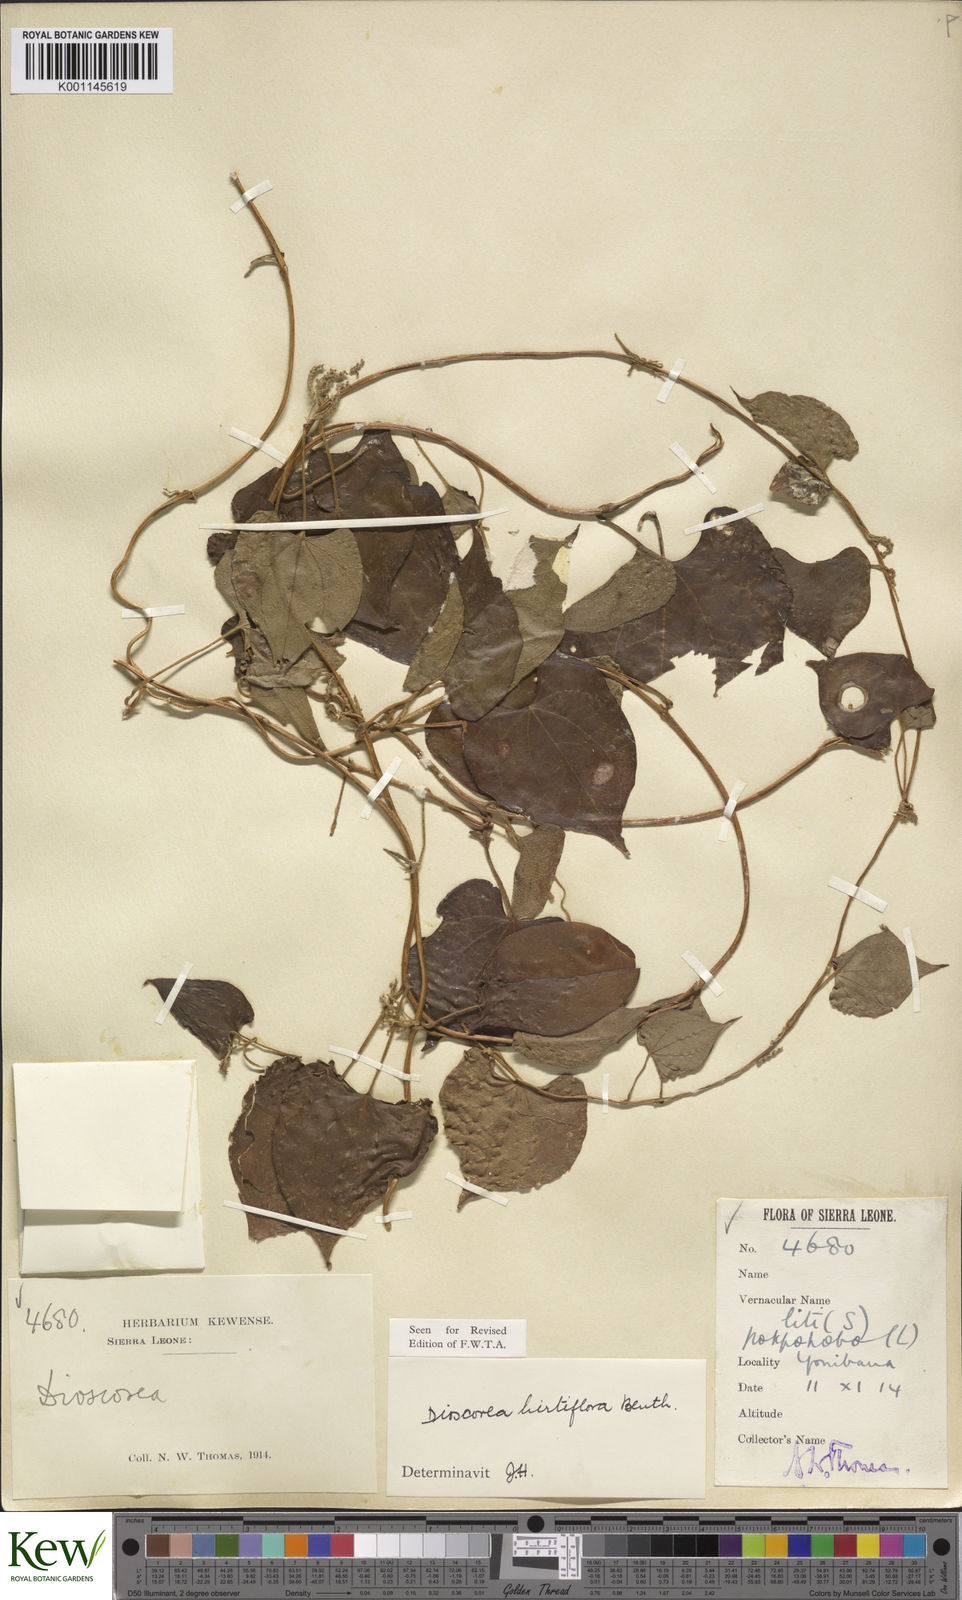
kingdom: Plantae
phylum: Tracheophyta
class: Liliopsida
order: Dioscoreales
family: Dioscoreaceae
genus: Dioscorea
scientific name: Dioscorea hirtiflora
